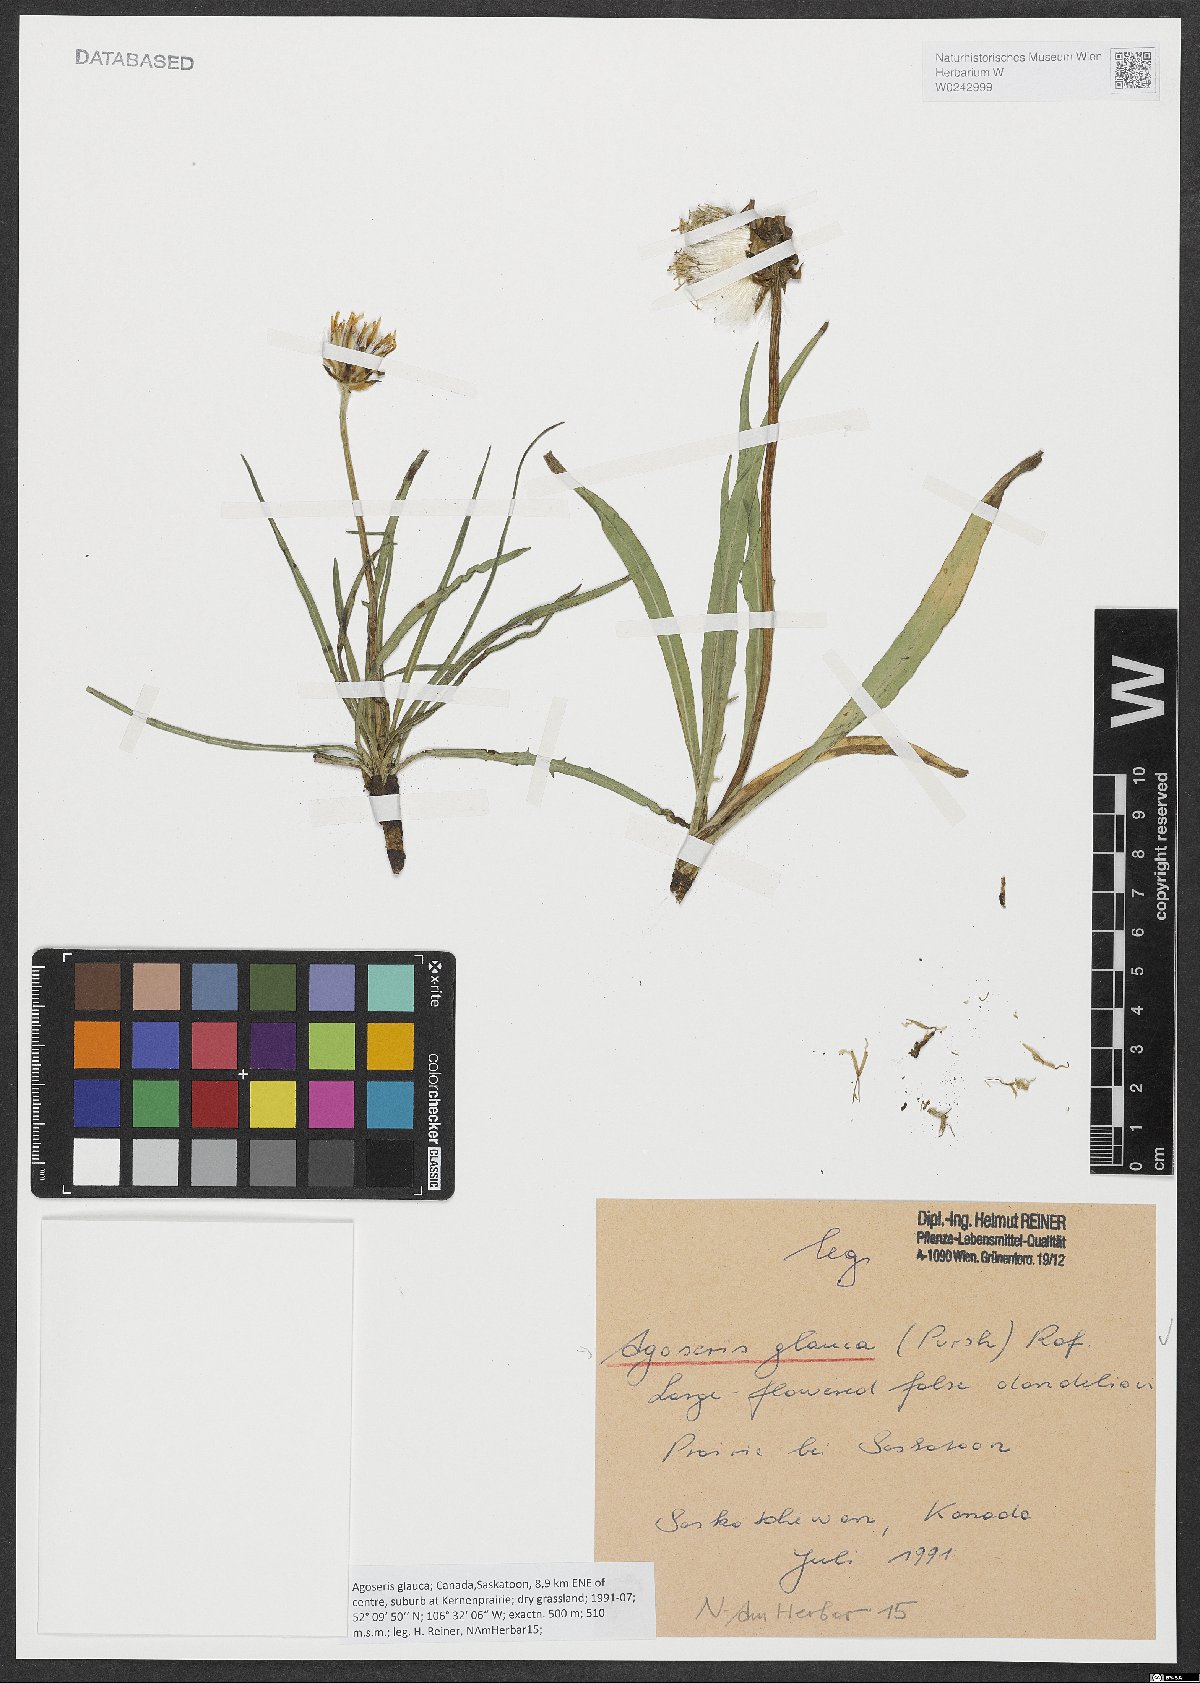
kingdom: Plantae
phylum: Tracheophyta
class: Magnoliopsida
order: Asterales
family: Asteraceae
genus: Agoseris
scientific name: Agoseris glauca
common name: Prairie agoseris
